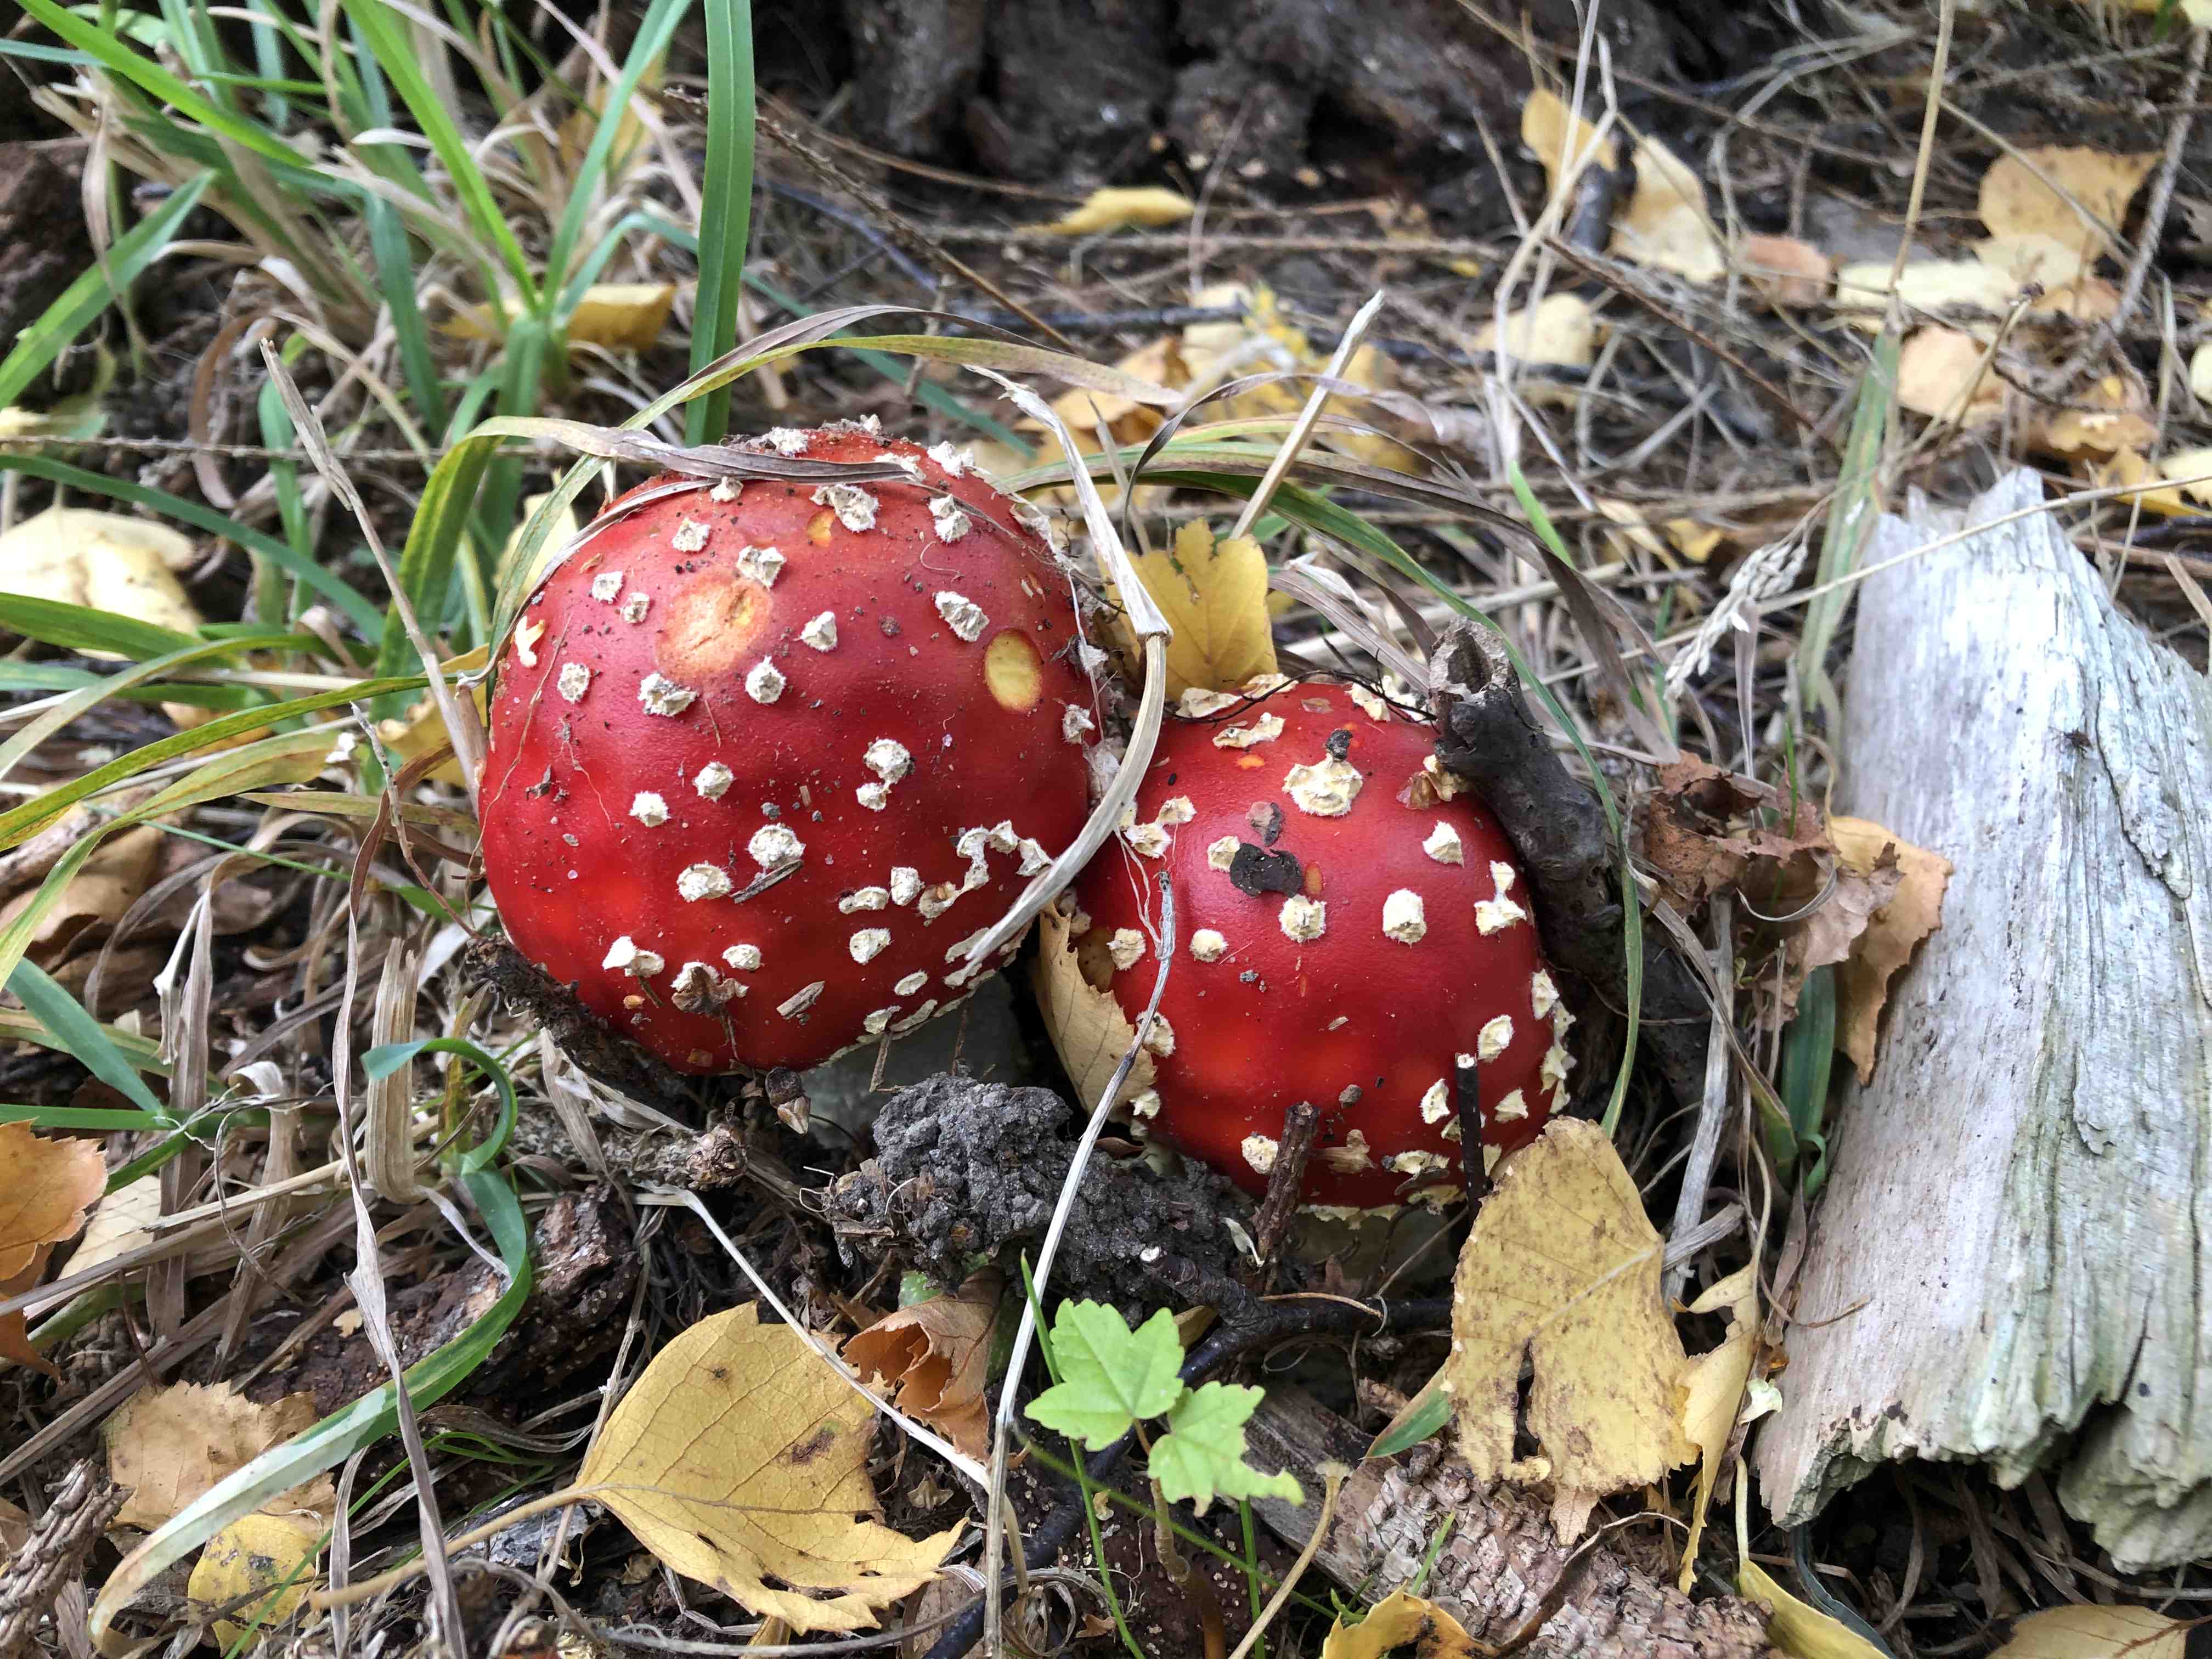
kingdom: Fungi
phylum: Basidiomycota
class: Agaricomycetes
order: Agaricales
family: Amanitaceae
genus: Amanita
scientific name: Amanita muscaria
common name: rød fluesvamp
